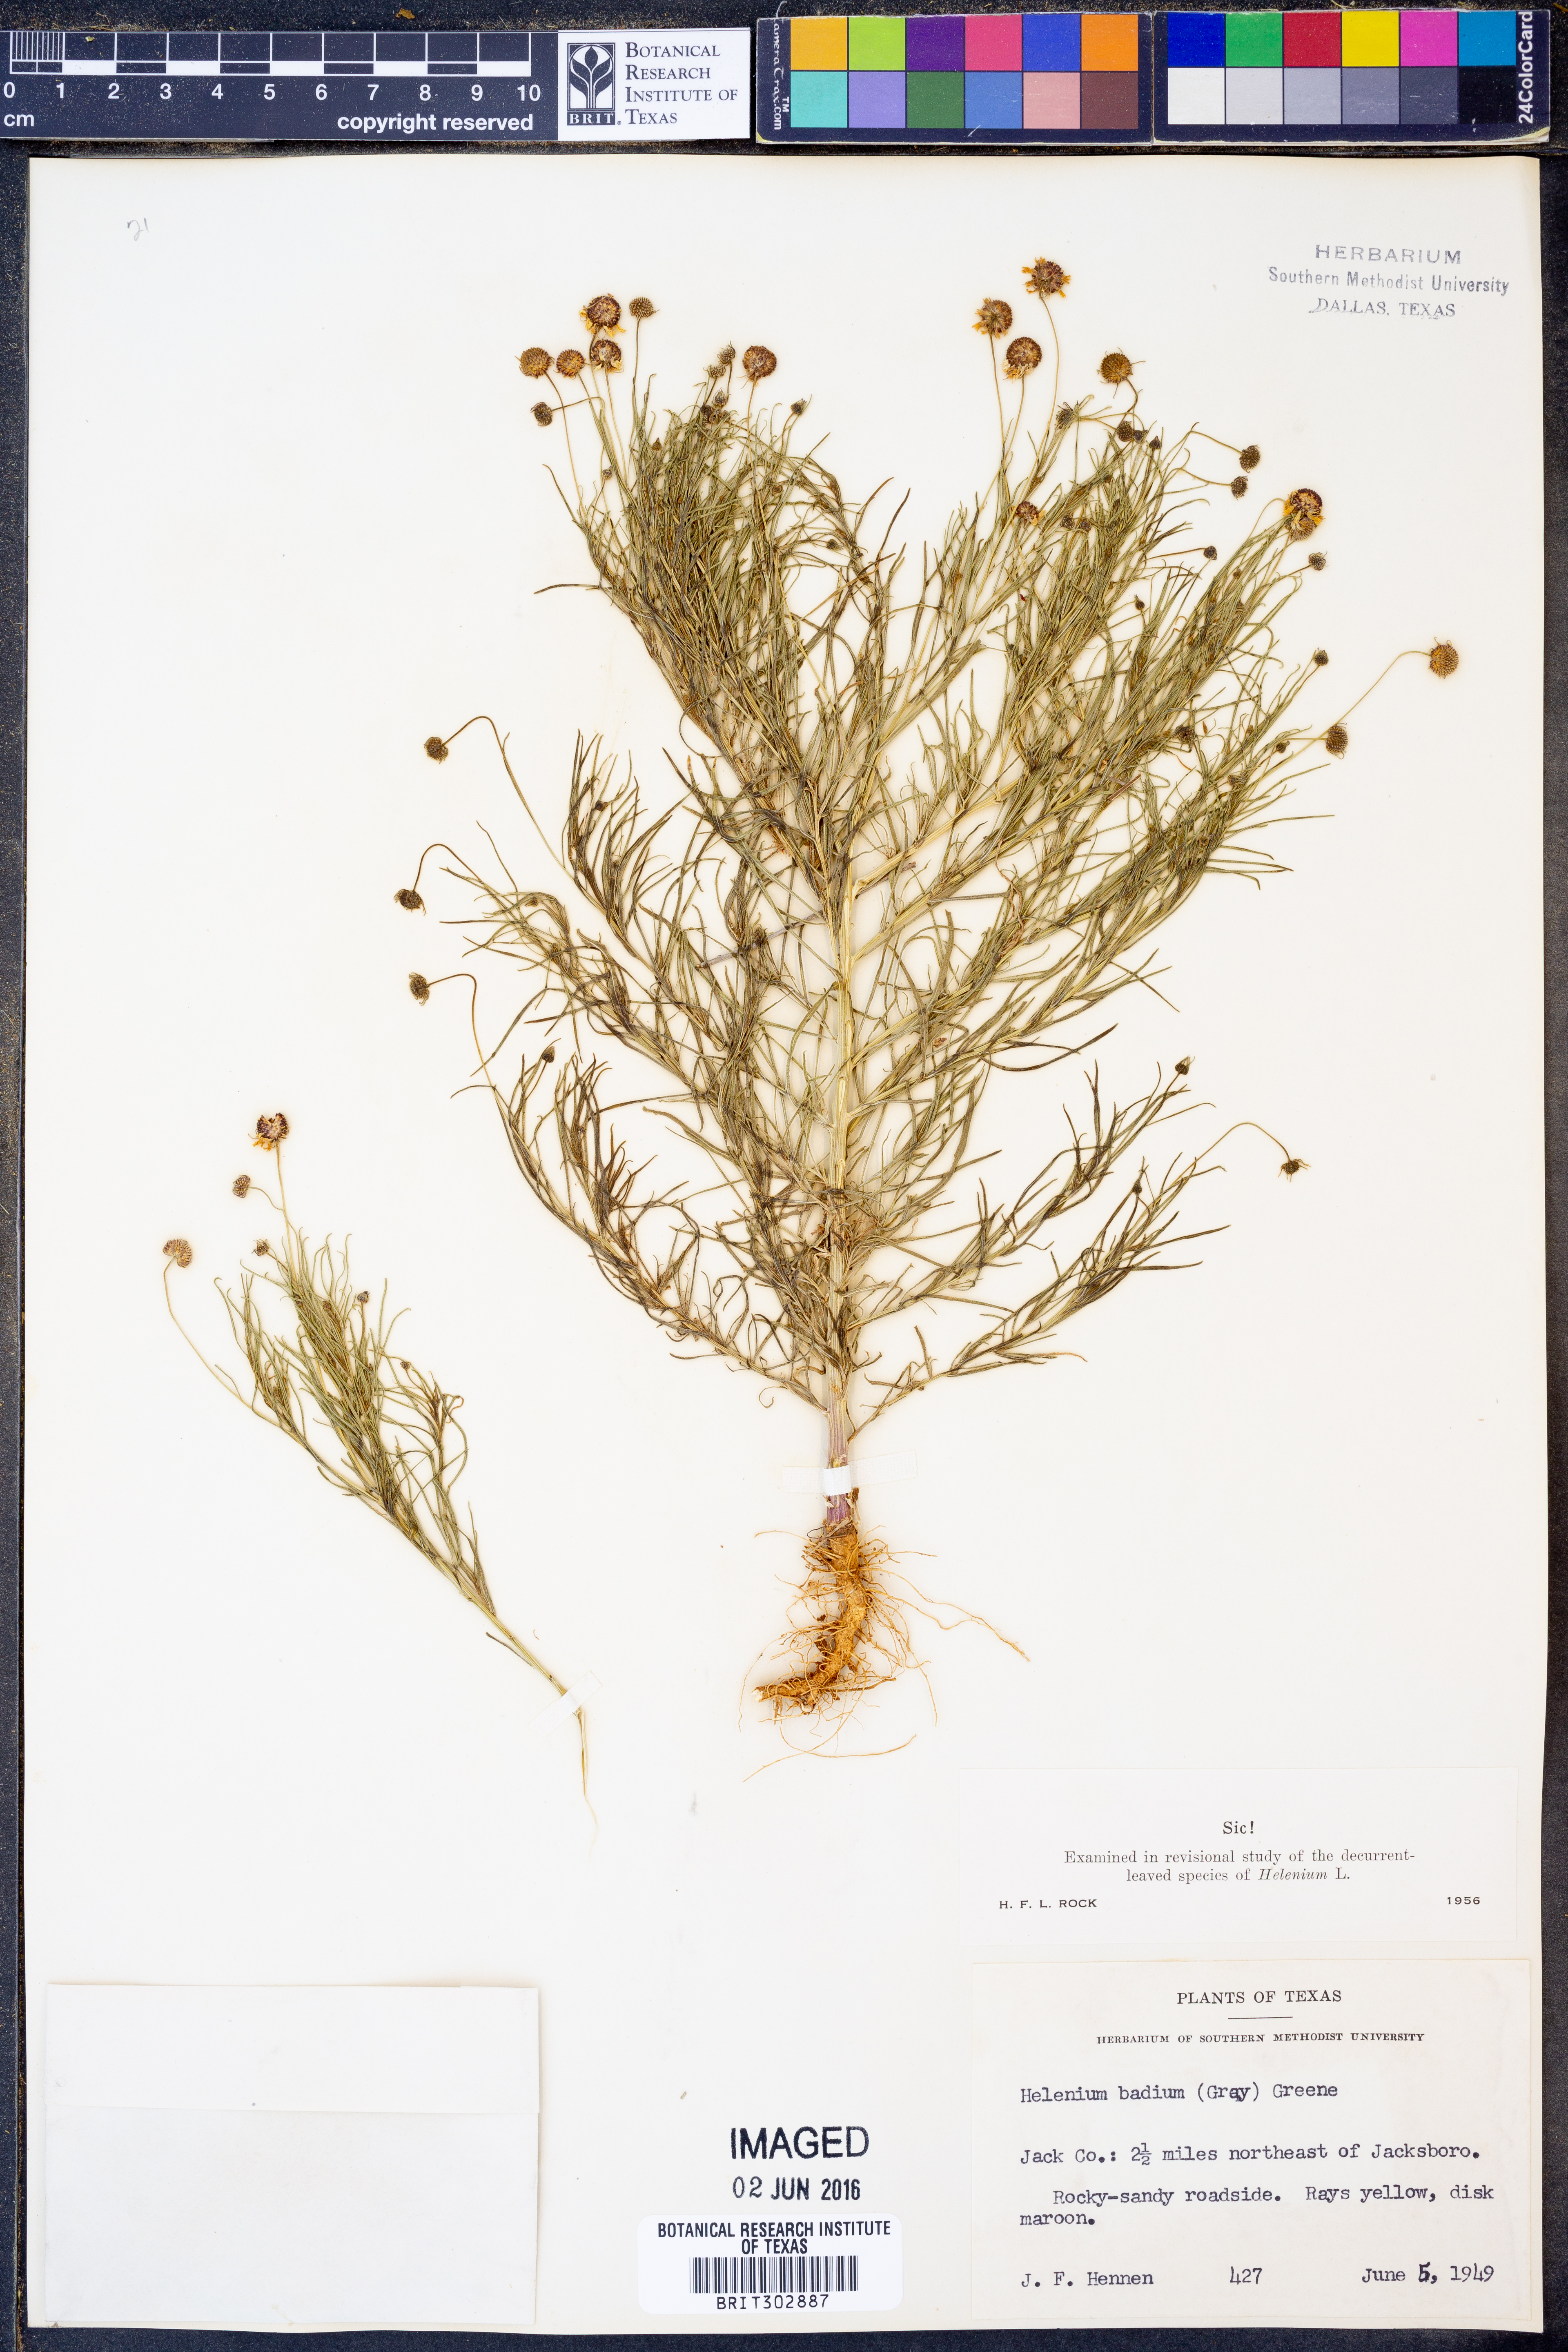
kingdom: Plantae
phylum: Tracheophyta
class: Magnoliopsida
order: Asterales
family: Asteraceae
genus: Helenium
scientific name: Helenium amarum
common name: Bitter sneezeweed
